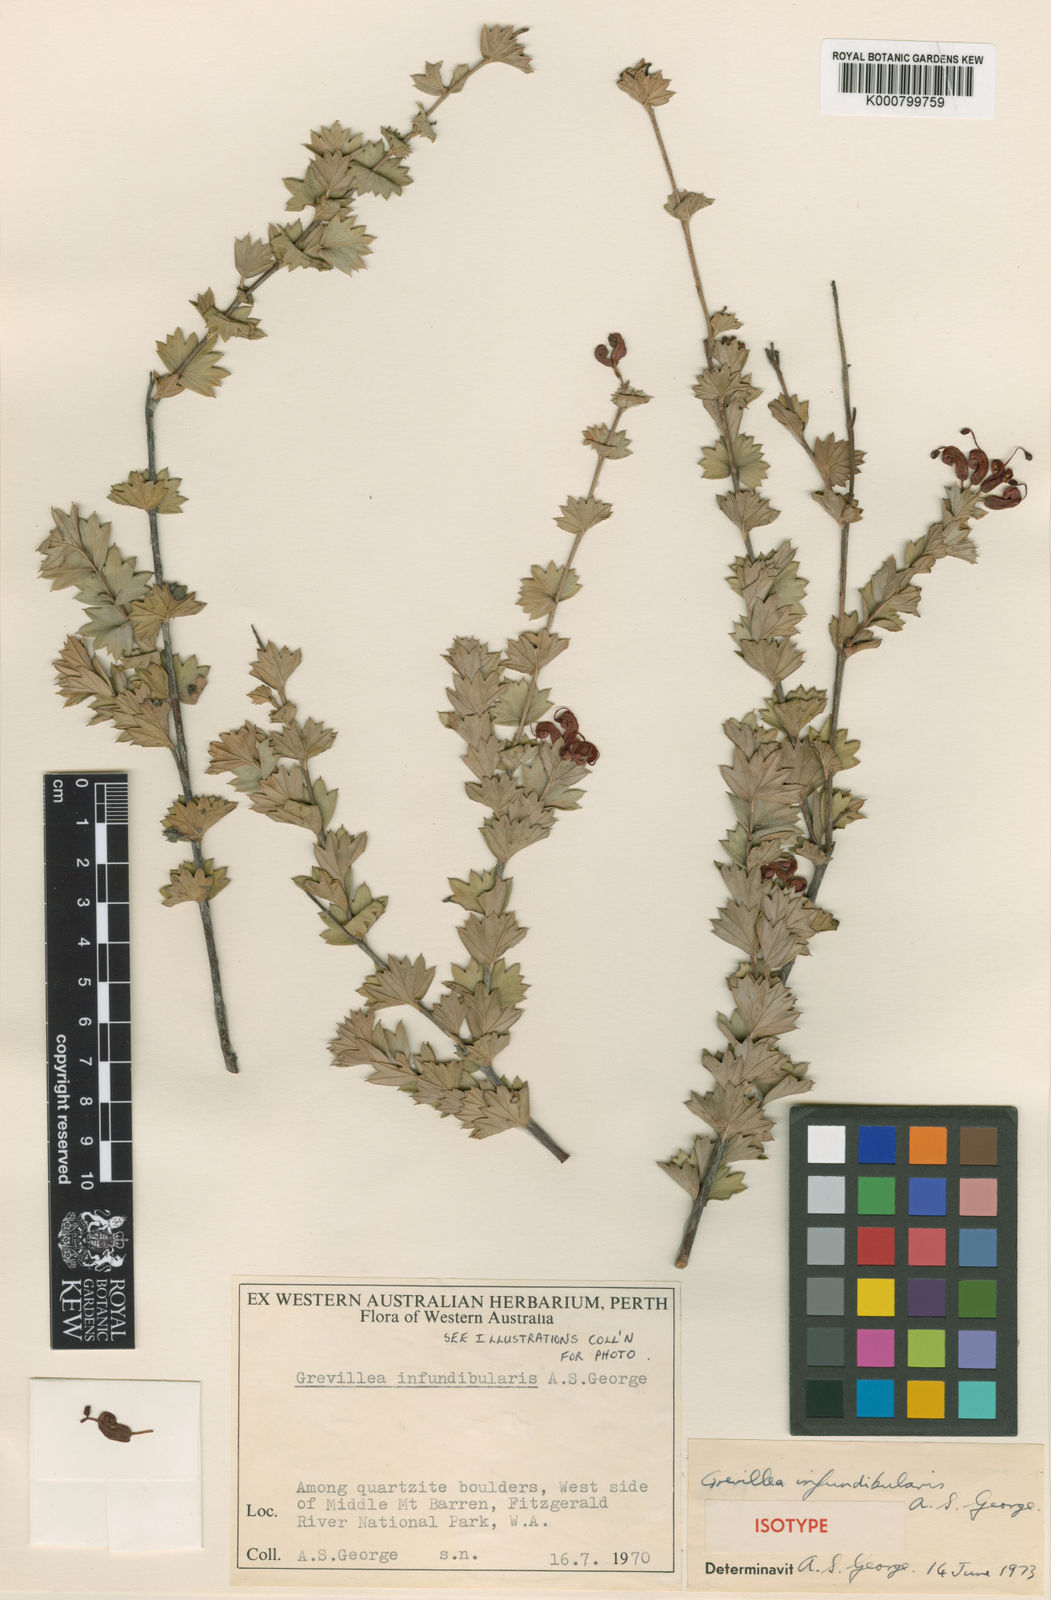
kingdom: Plantae
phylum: Tracheophyta
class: Magnoliopsida
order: Proteales
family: Proteaceae
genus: Grevillea
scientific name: Grevillea infundibularis
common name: Fan-leaf grevillea
